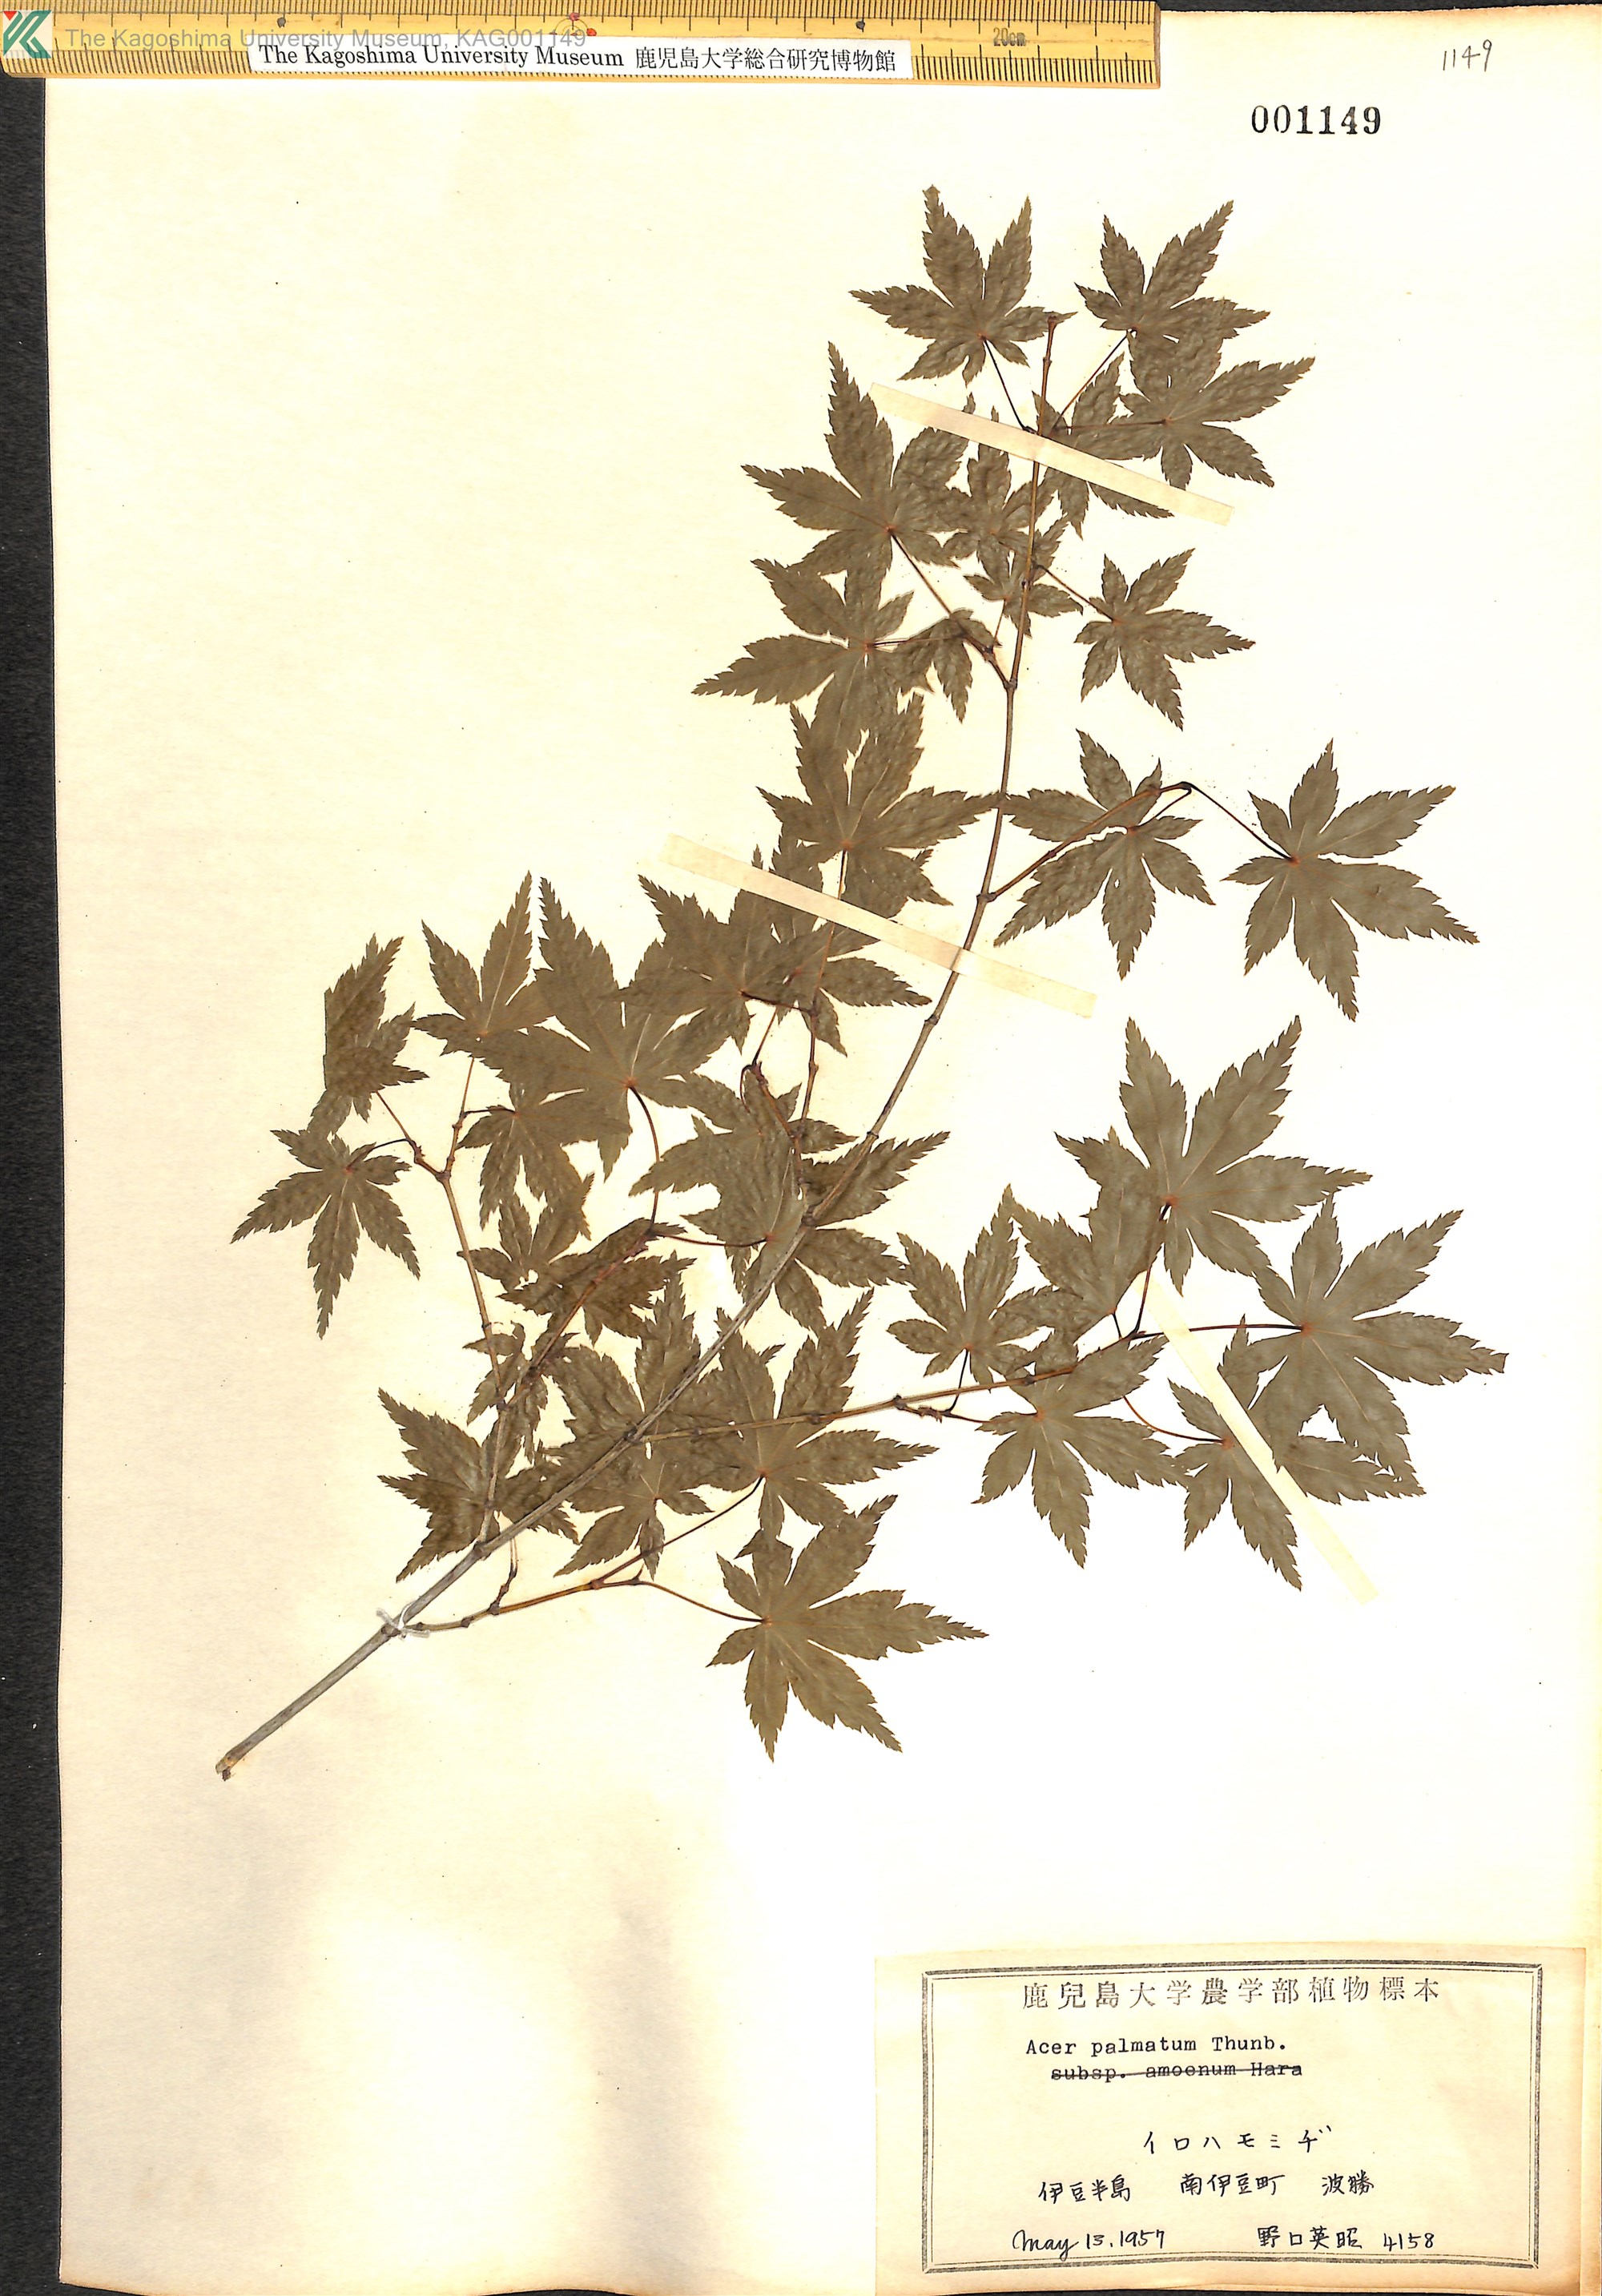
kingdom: Plantae
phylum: Tracheophyta
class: Magnoliopsida
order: Sapindales
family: Sapindaceae
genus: Acer
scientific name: Acer palmatum
